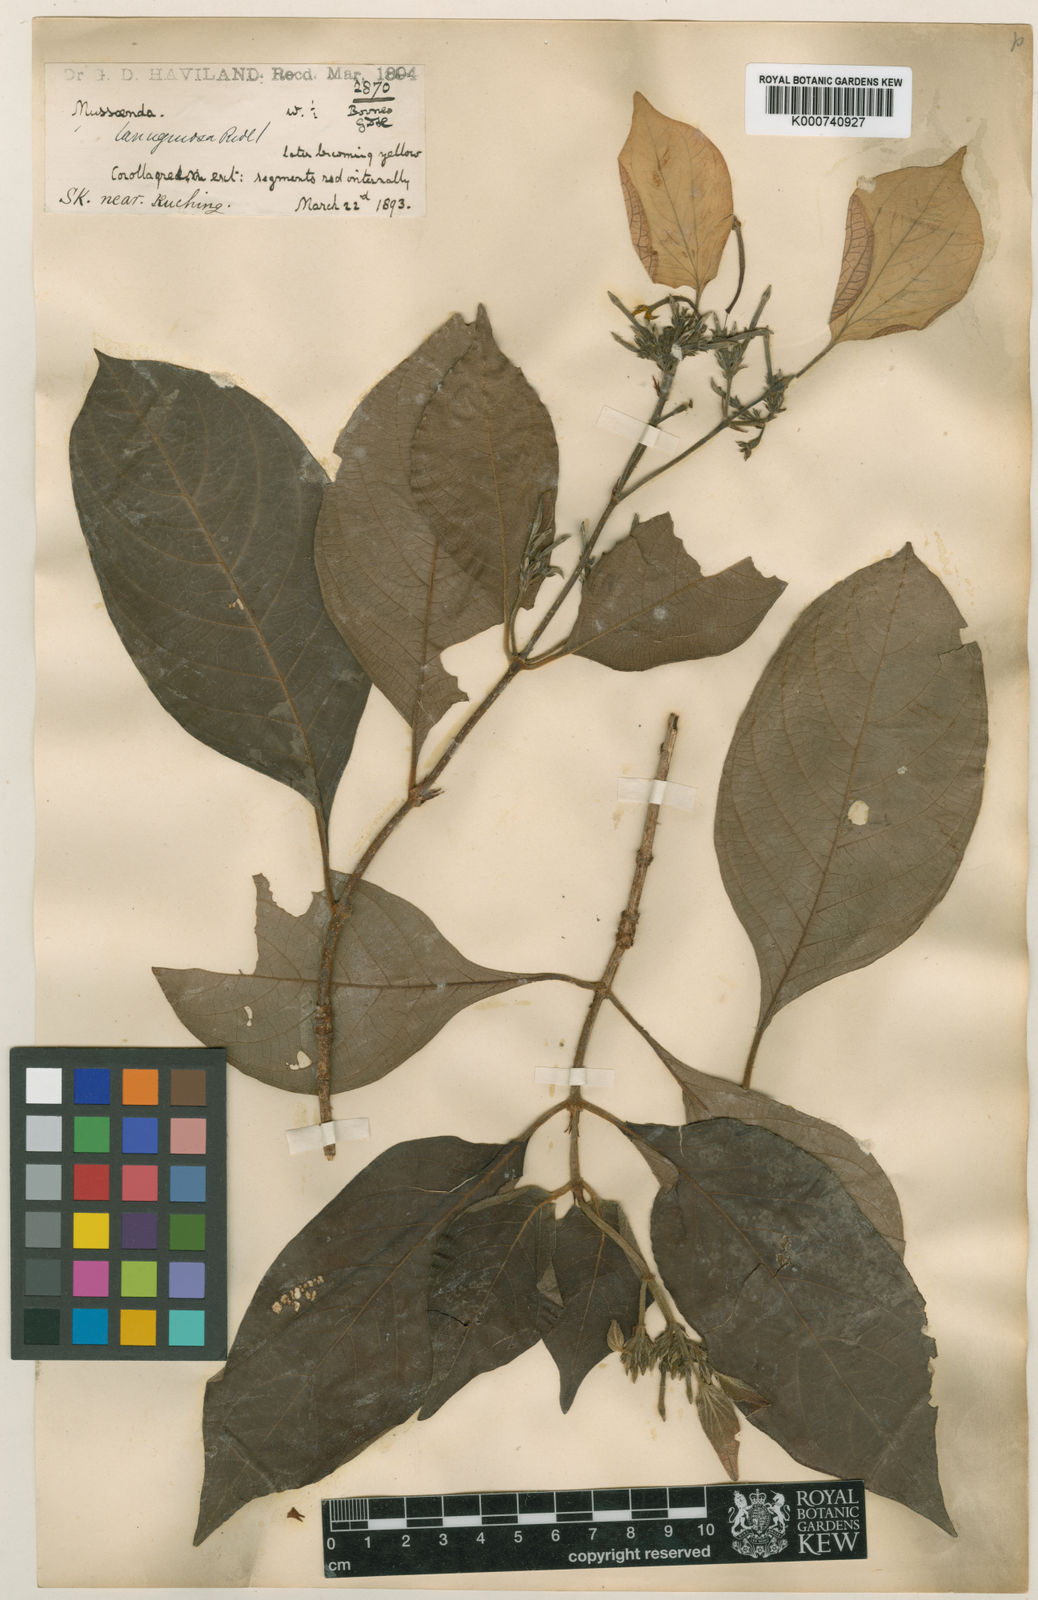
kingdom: Plantae
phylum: Tracheophyta
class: Magnoliopsida
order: Gentianales
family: Rubiaceae
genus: Mussaenda
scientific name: Mussaenda lanuginosa
